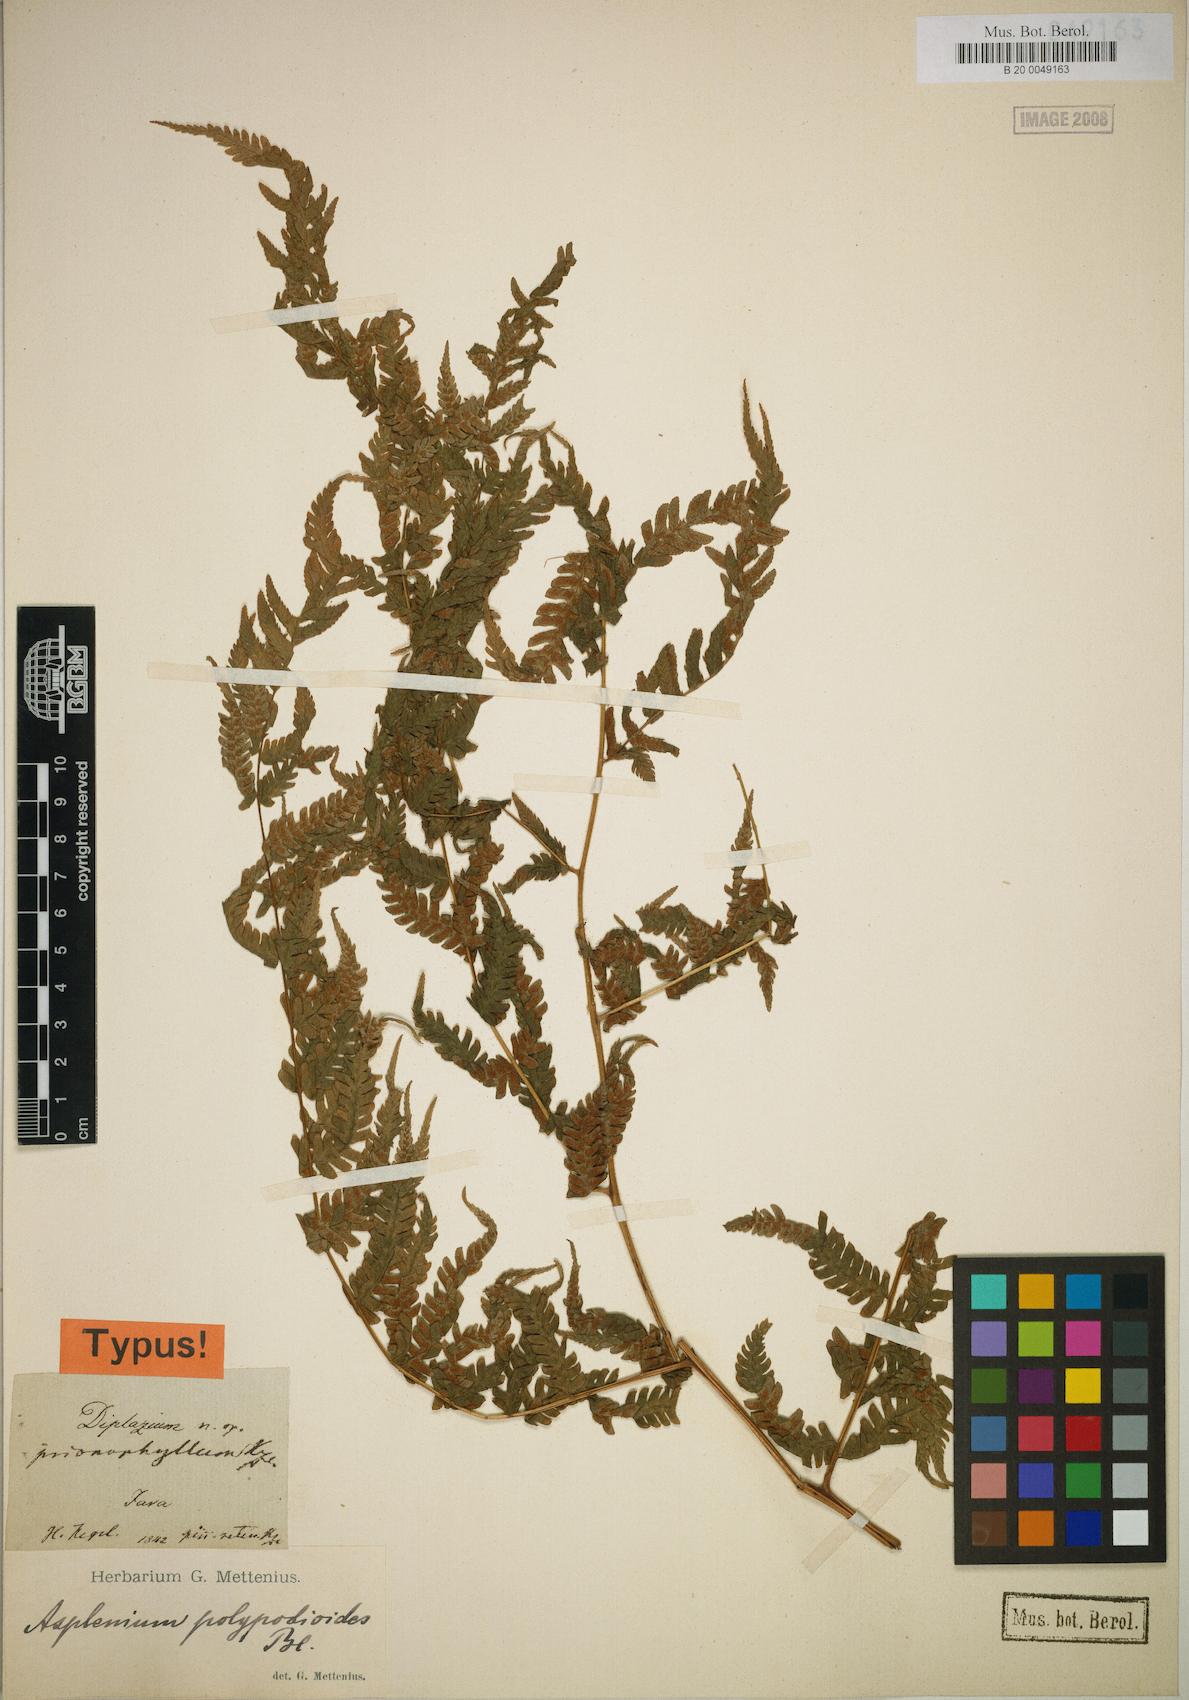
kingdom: Plantae
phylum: Tracheophyta
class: Polypodiopsida
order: Polypodiales
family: Athyriaceae
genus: Diplazium
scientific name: Diplazium prionophyllum
